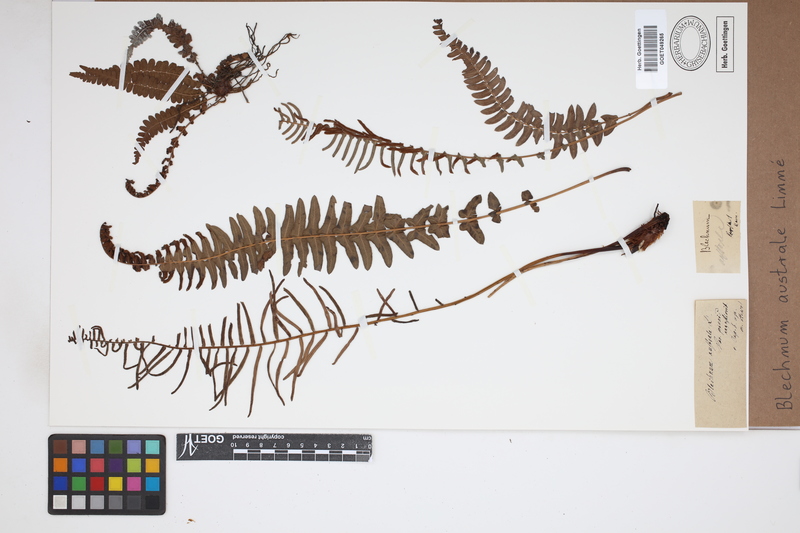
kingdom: Plantae
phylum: Tracheophyta
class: Polypodiopsida
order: Polypodiales
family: Blechnaceae
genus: Blechnum
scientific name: Blechnum australe
